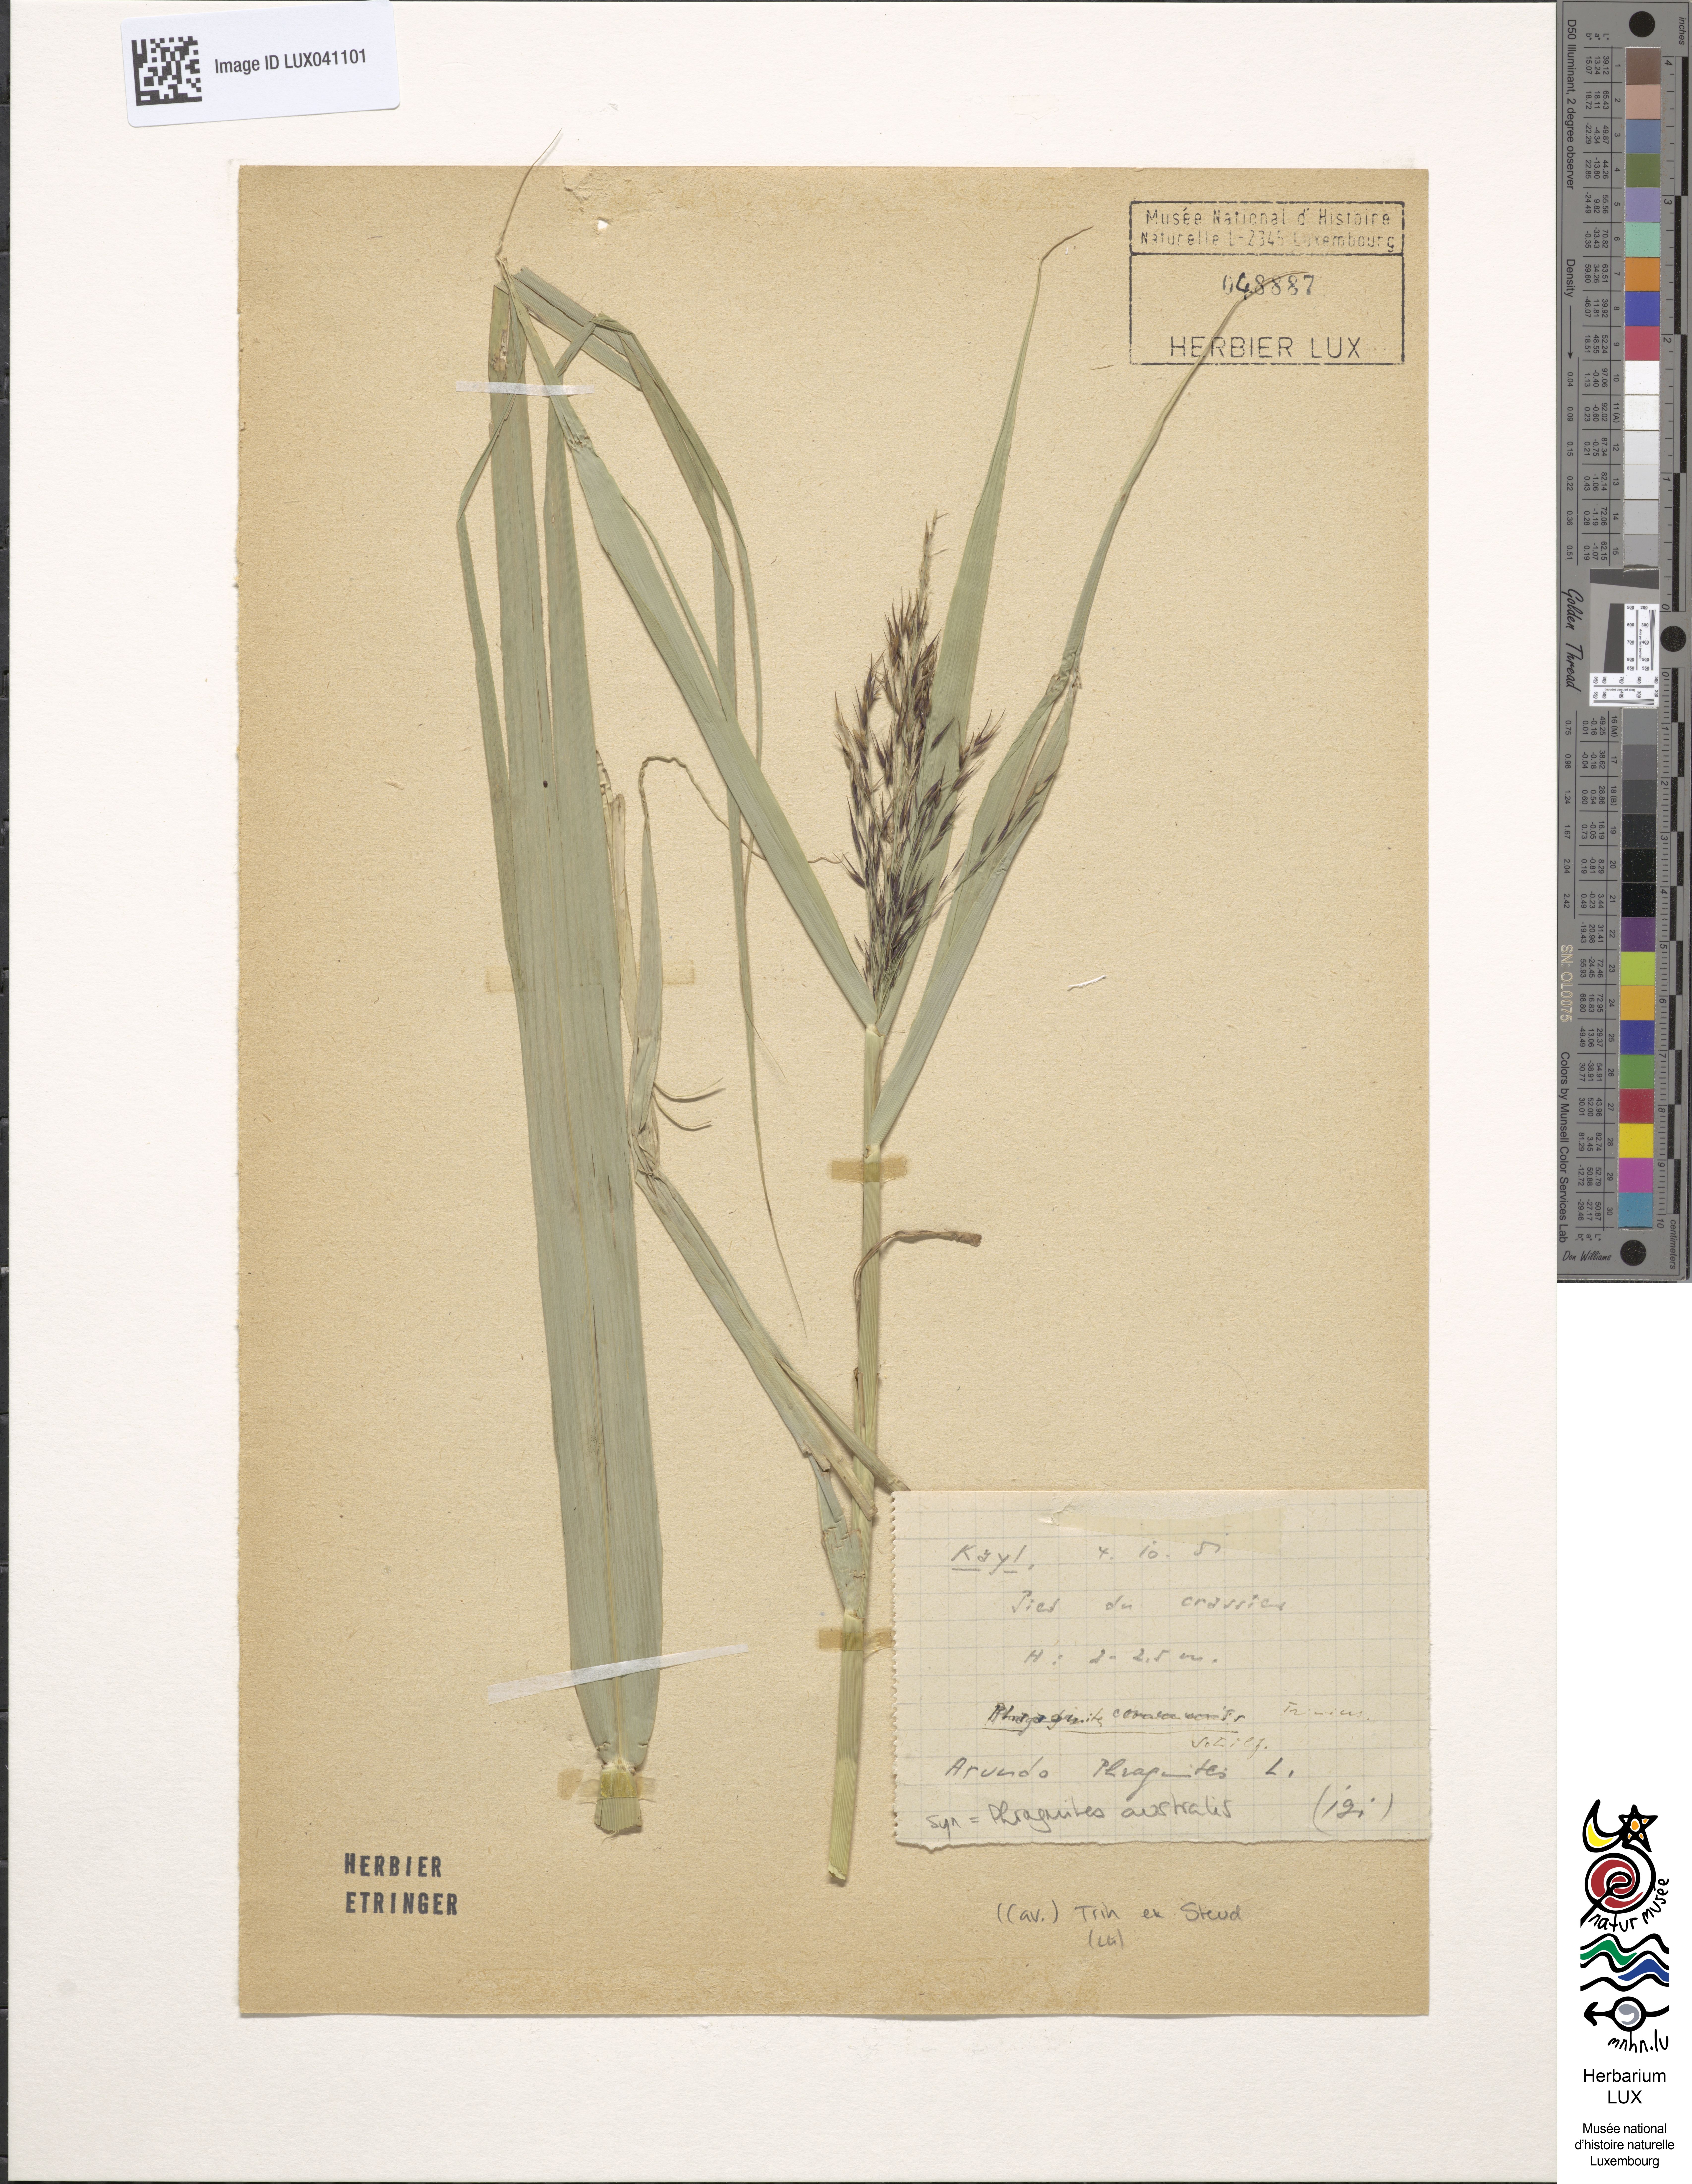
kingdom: Plantae
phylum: Tracheophyta
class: Liliopsida
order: Poales
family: Poaceae
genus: Phragmites
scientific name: Phragmites australis
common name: Common reed
